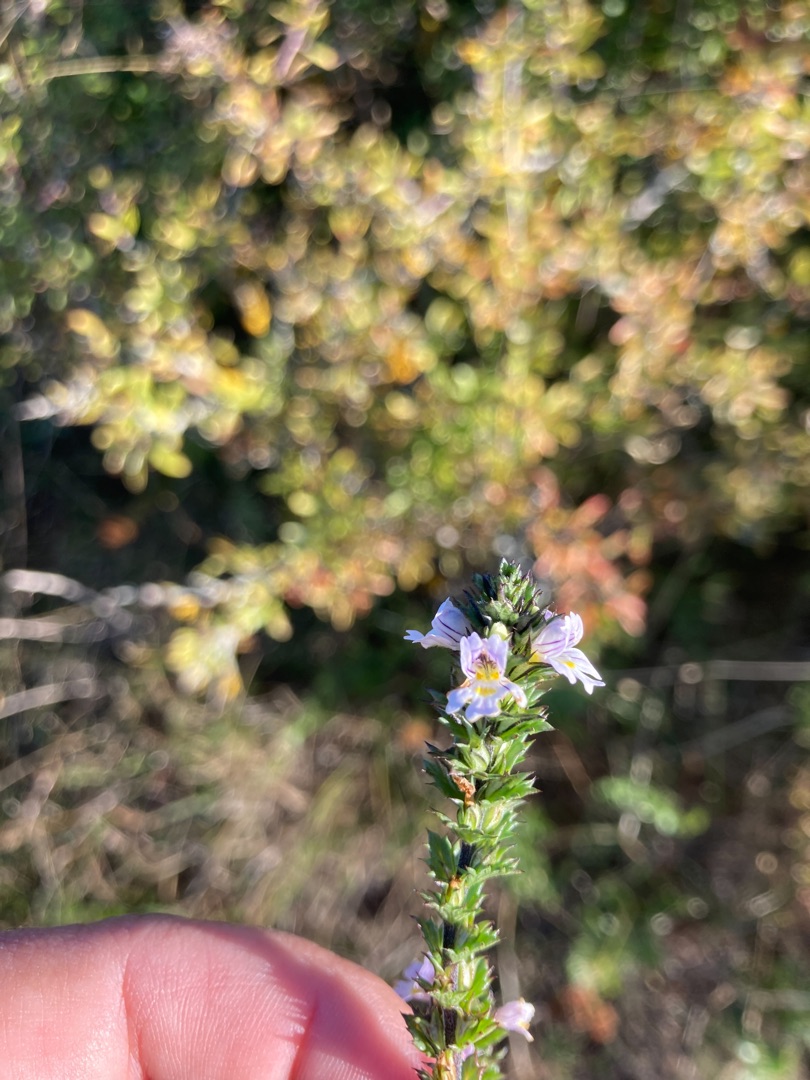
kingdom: Plantae
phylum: Tracheophyta
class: Magnoliopsida
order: Lamiales
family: Orobanchaceae
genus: Euphrasia
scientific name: Euphrasia stricta
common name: Spids øjentrøst
